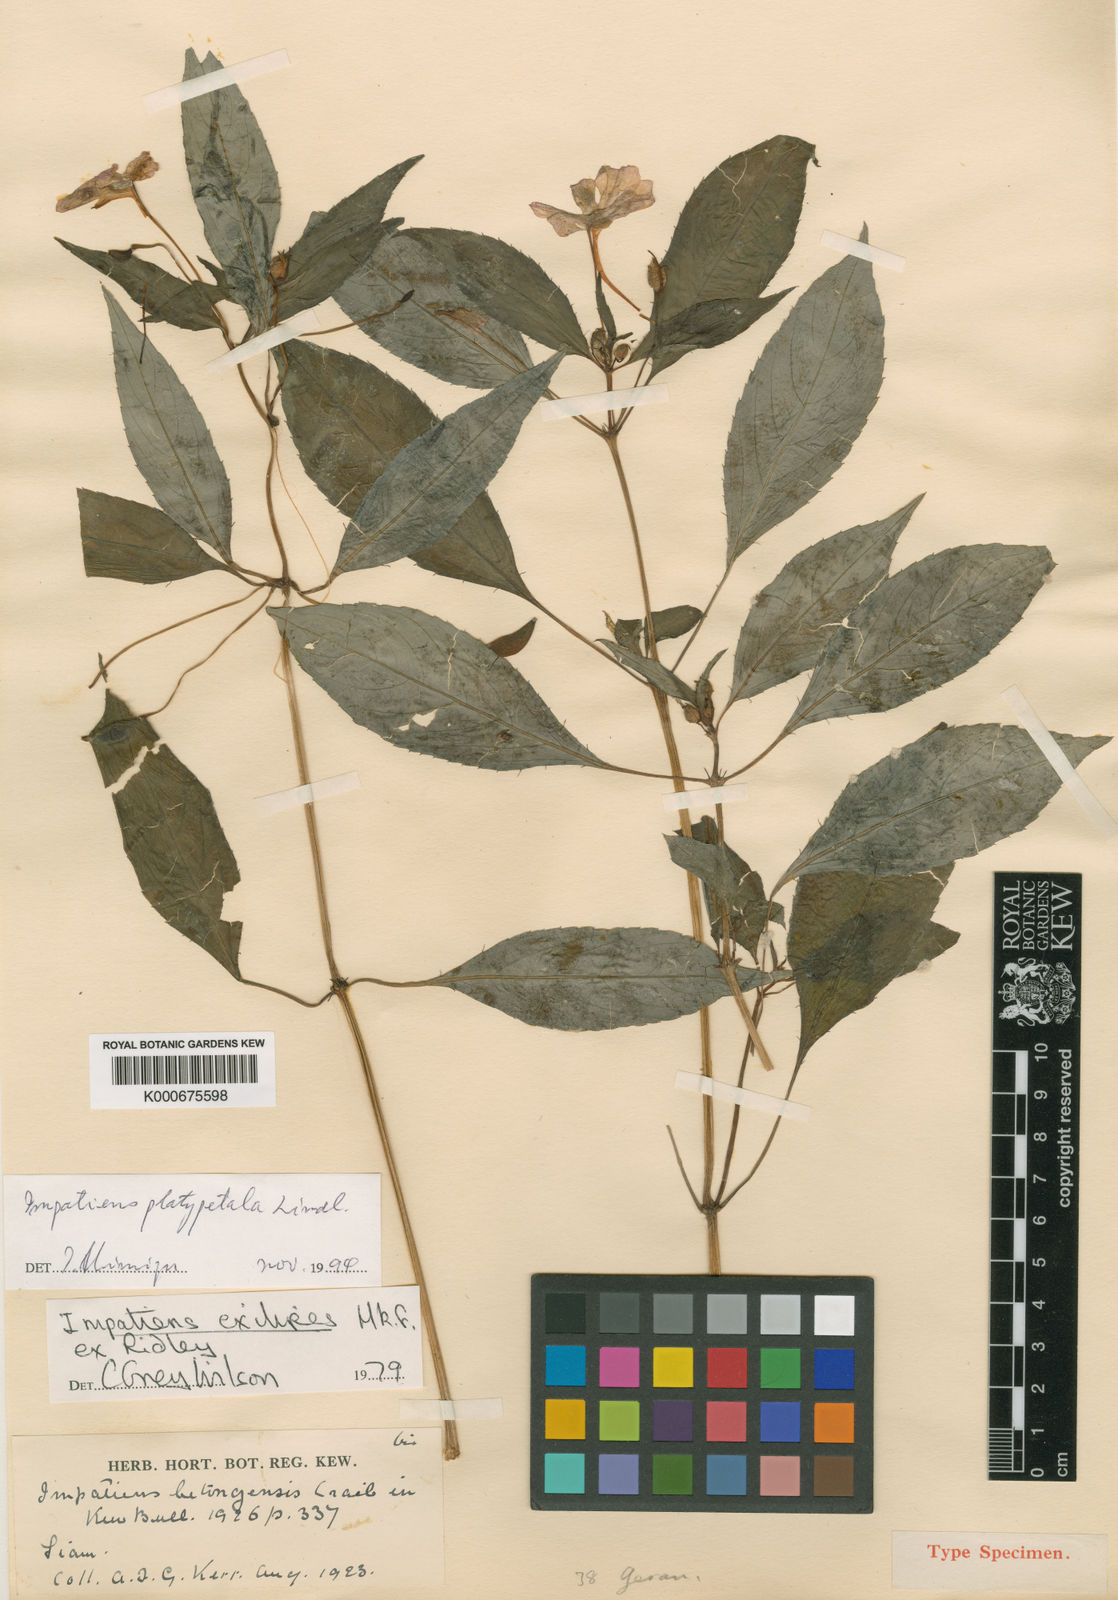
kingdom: Plantae
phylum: Tracheophyta
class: Magnoliopsida
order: Ericales
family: Balsaminaceae
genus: Impatiens
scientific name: Impatiens platypetala
